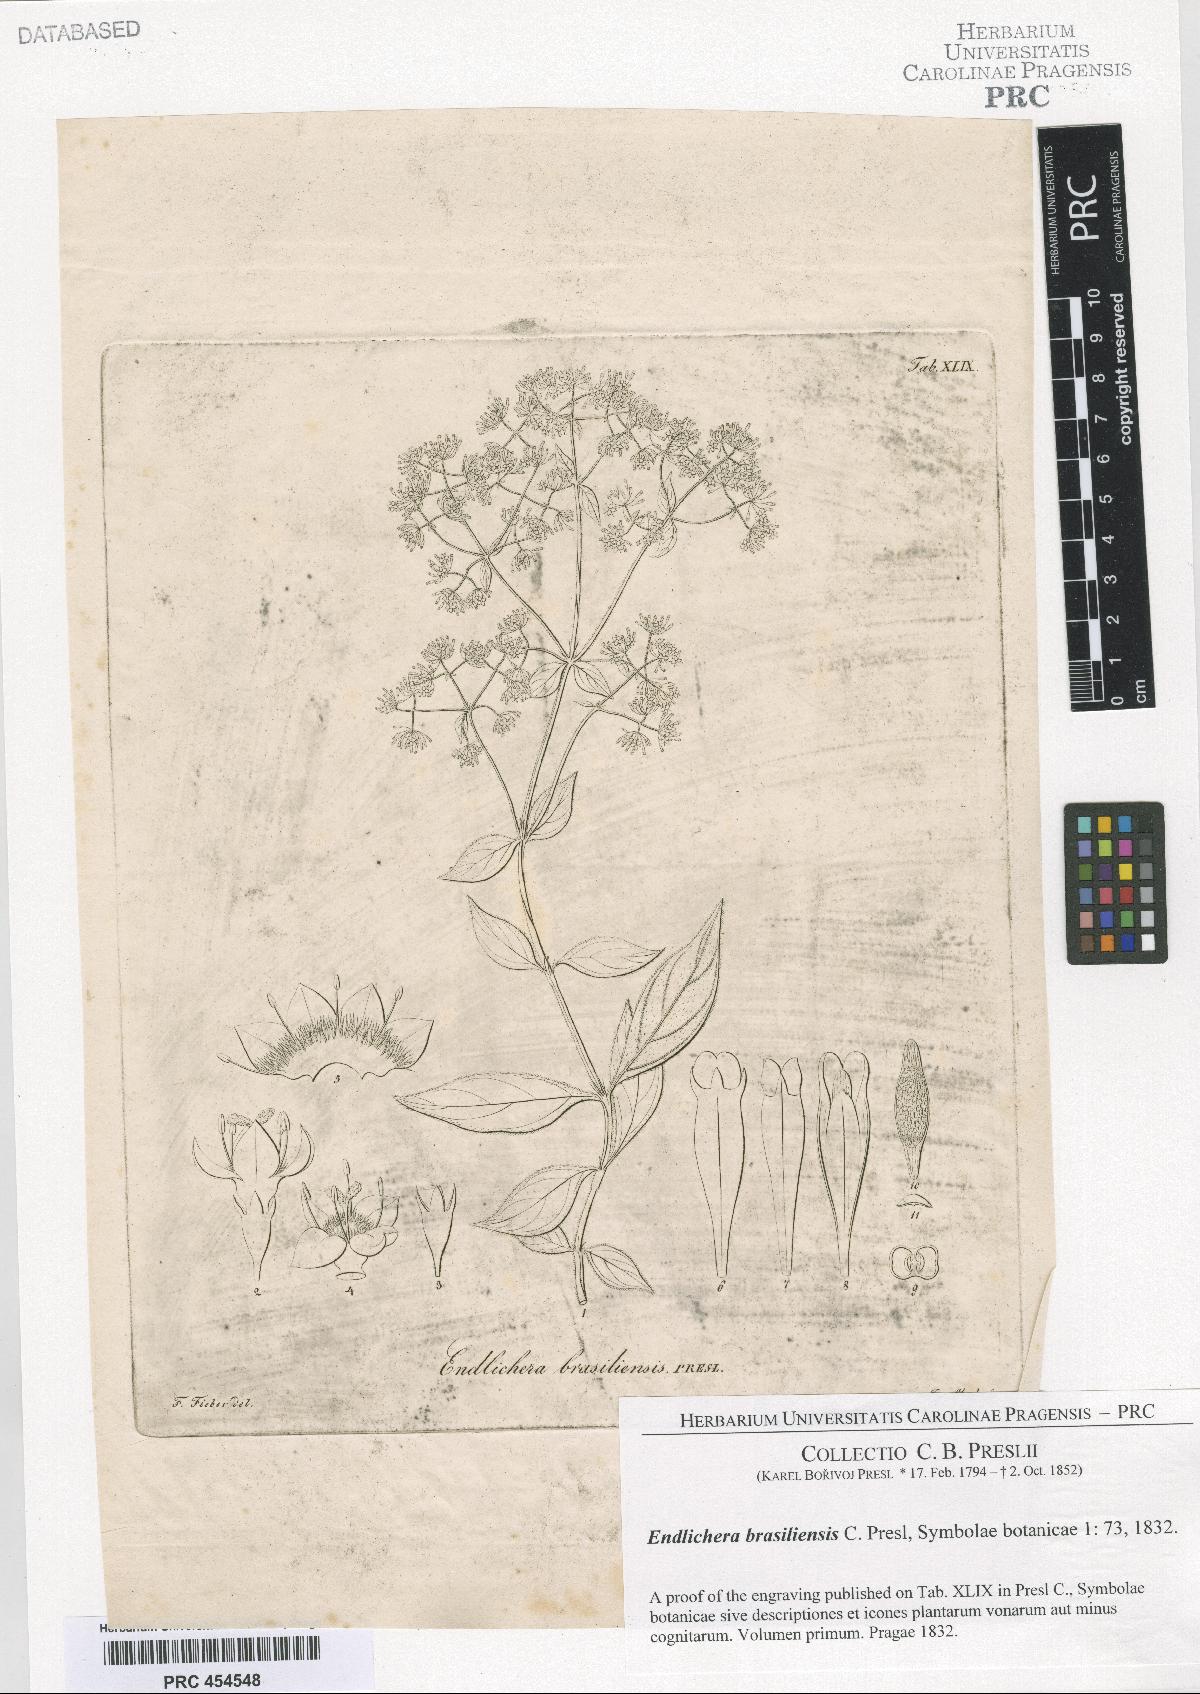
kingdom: Plantae
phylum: Tracheophyta
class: Magnoliopsida
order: Gentianales
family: Rubiaceae
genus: Emmeorhiza
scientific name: Emmeorhiza umbellata
